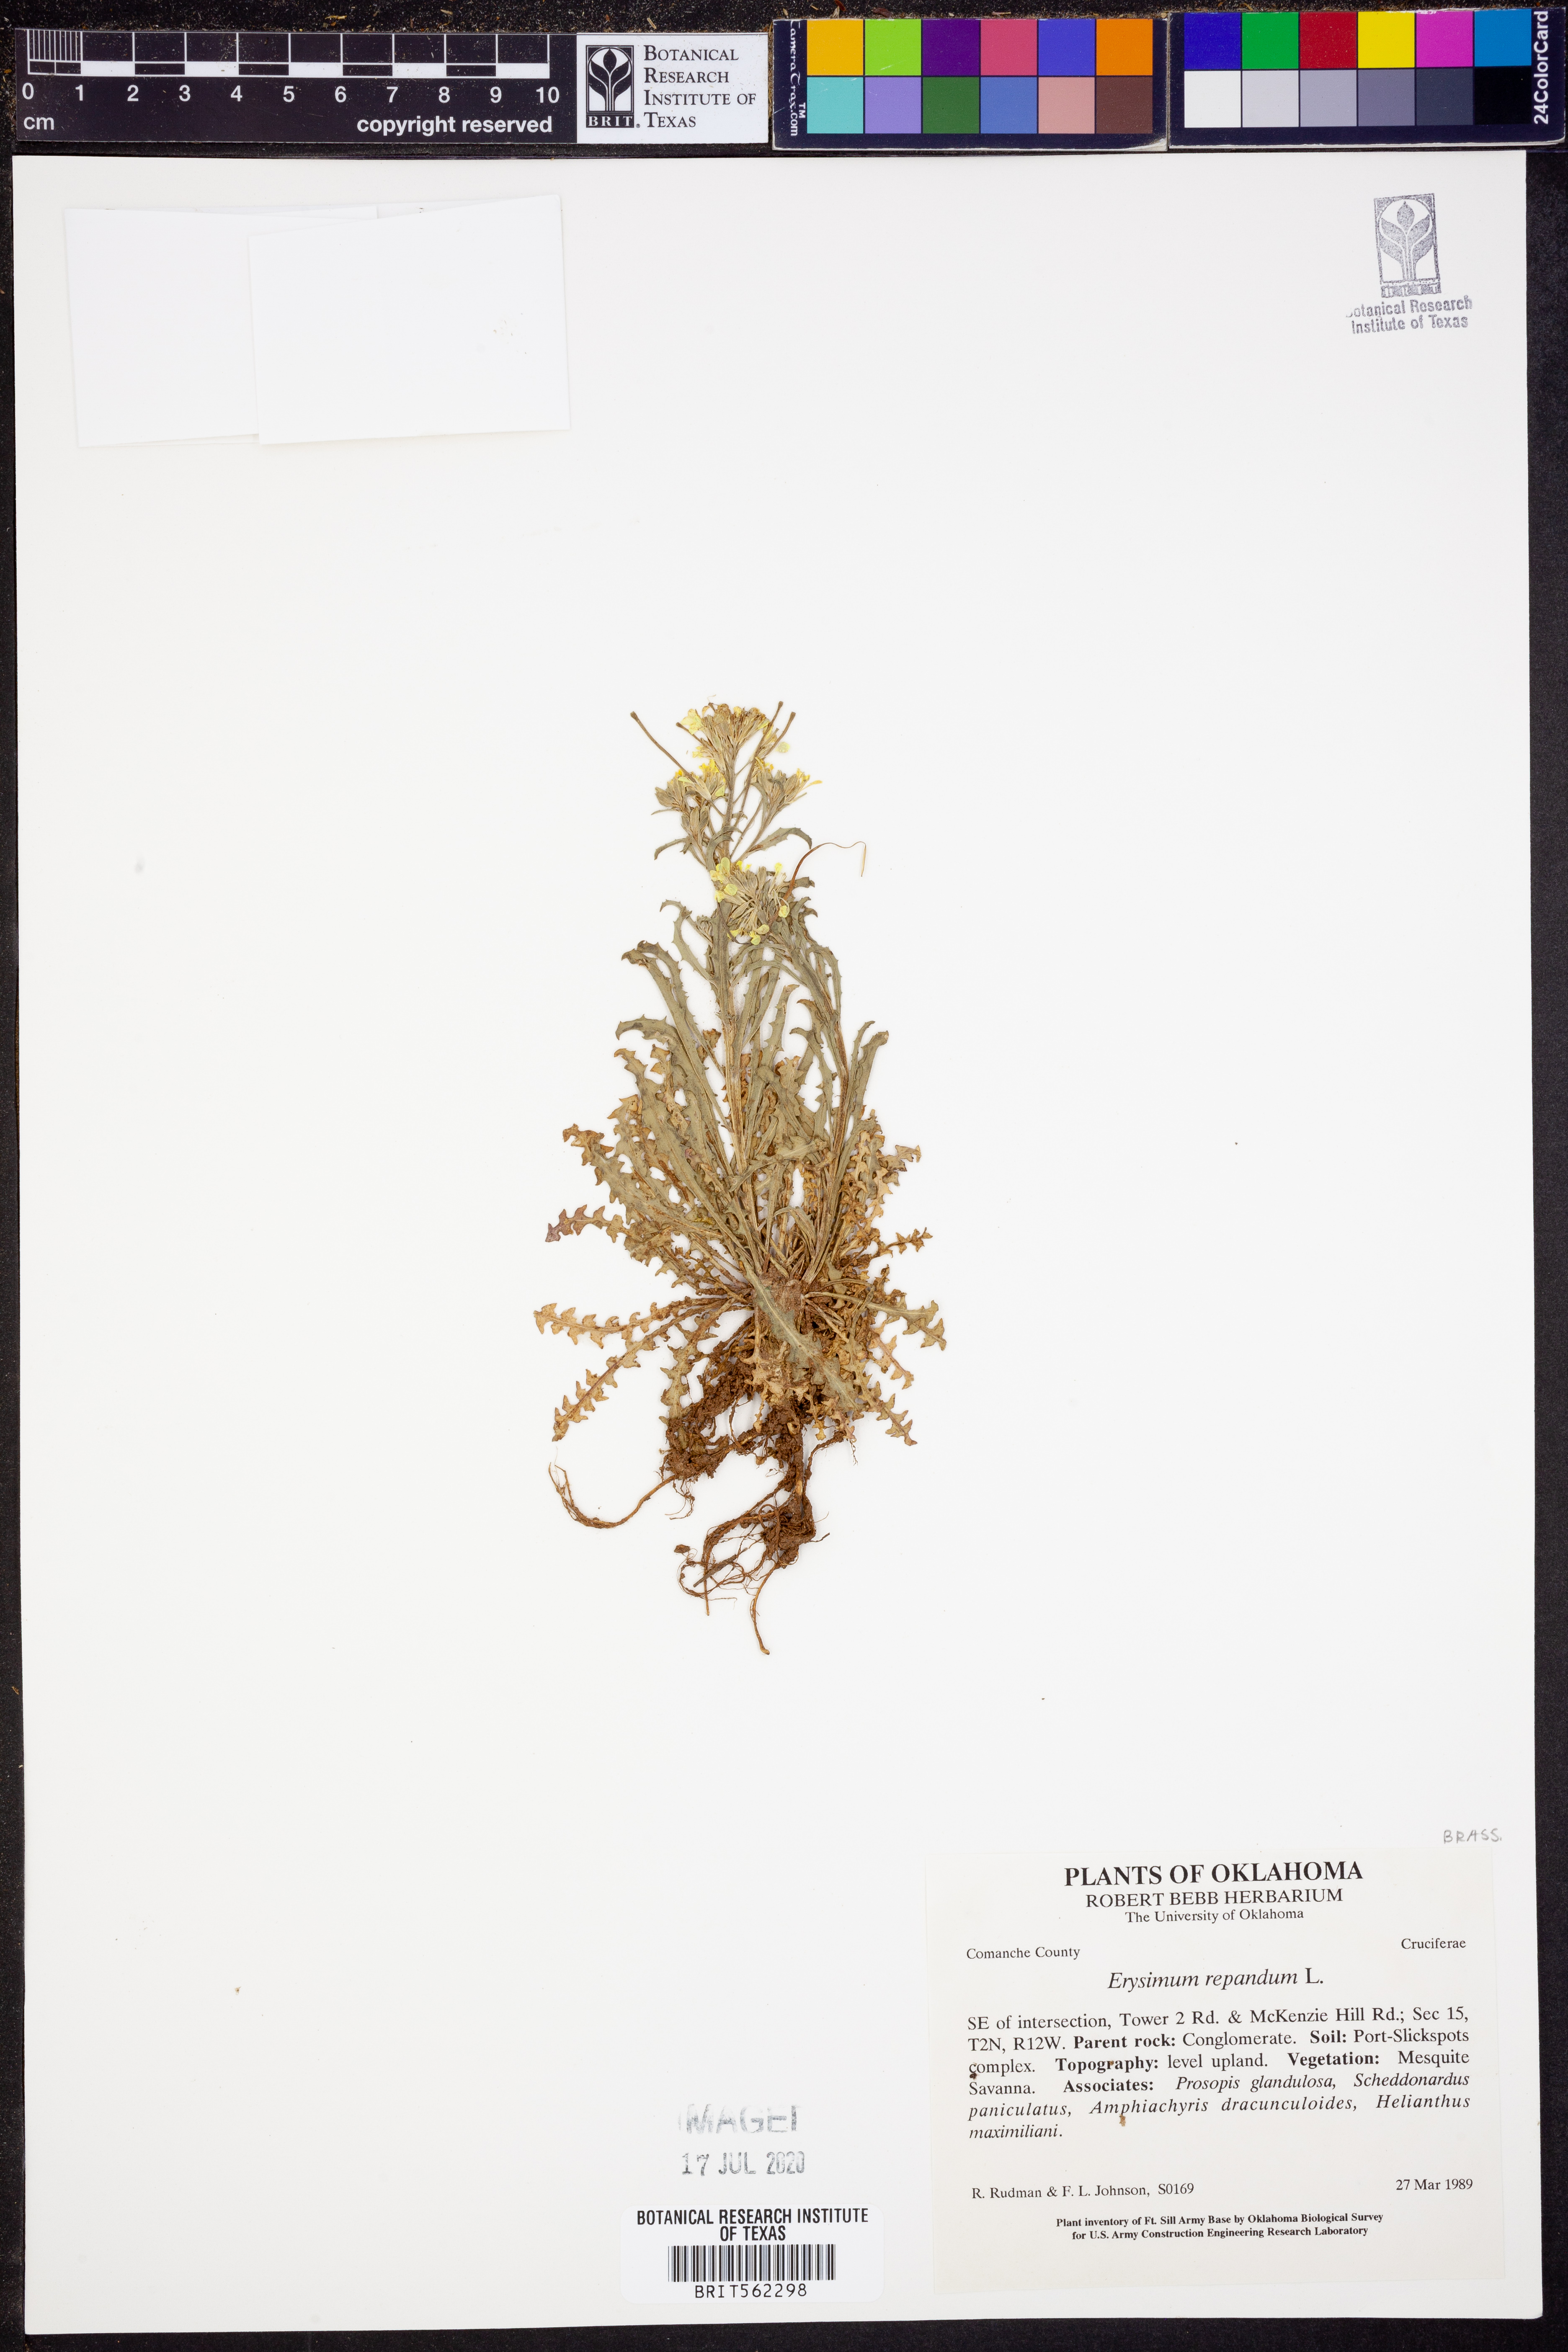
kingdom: Plantae
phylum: Tracheophyta
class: Magnoliopsida
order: Brassicales
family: Brassicaceae
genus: Erysimum
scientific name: Erysimum repandum
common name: Spreading wallflower
